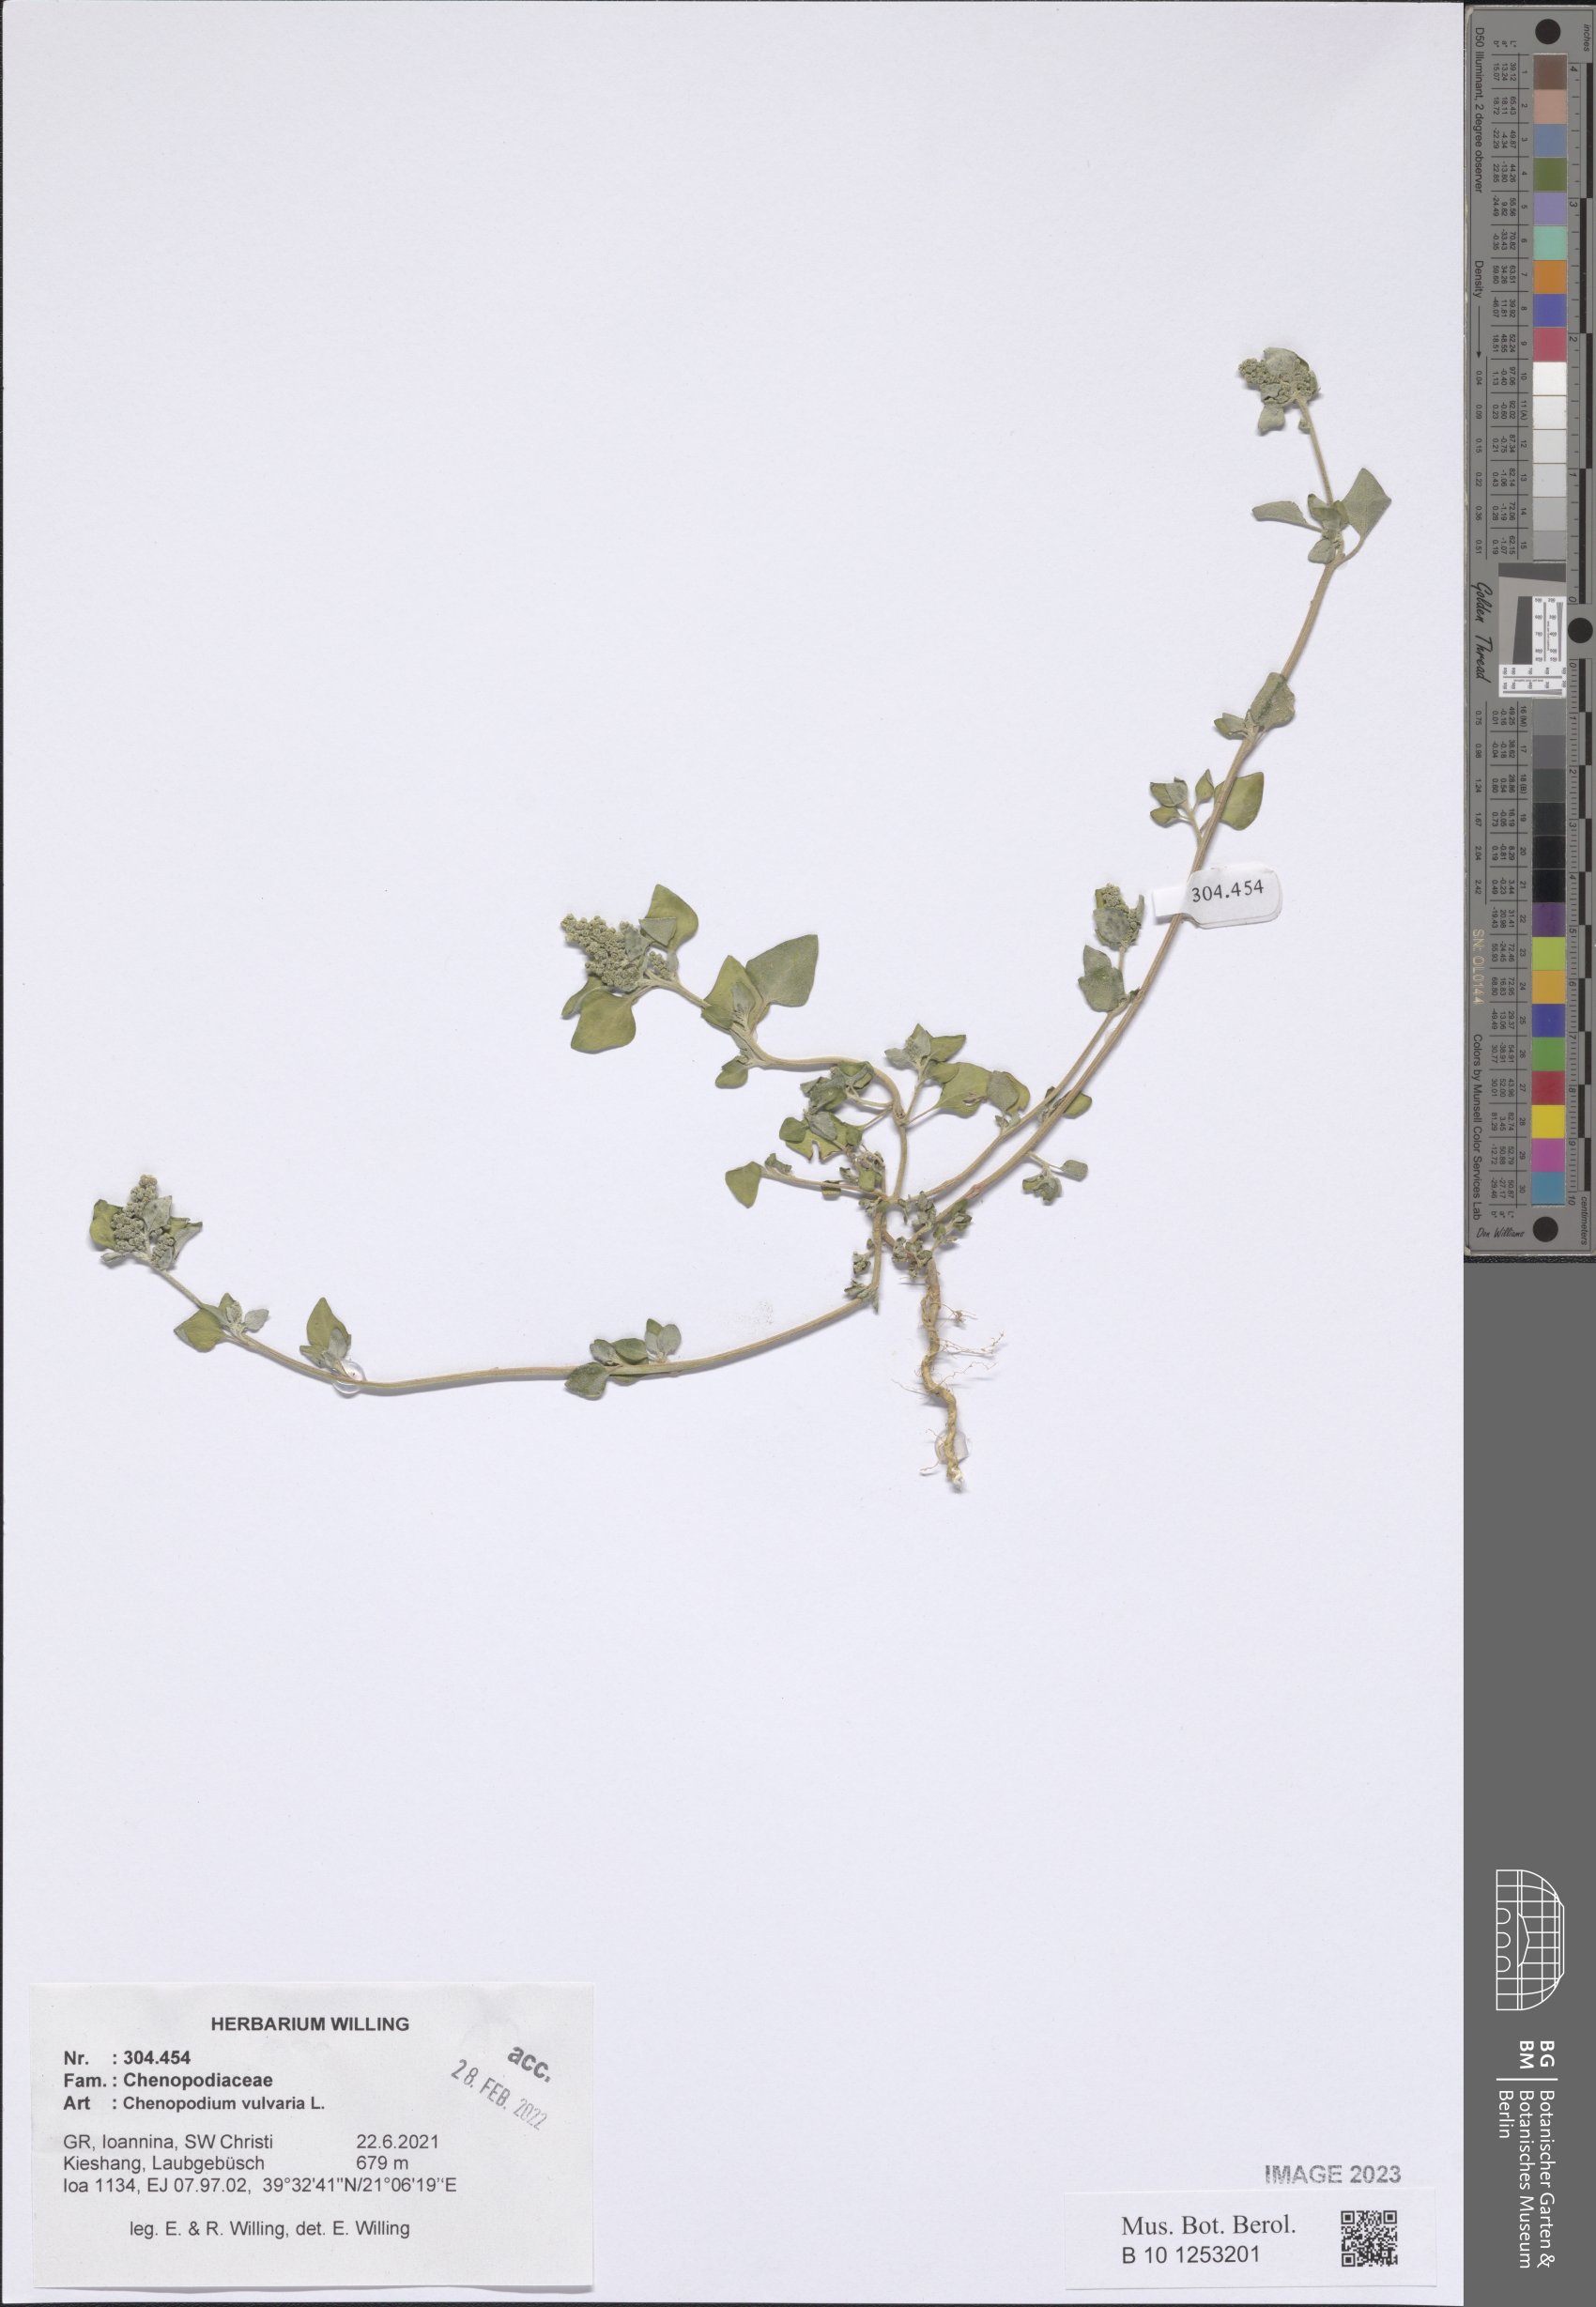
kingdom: Plantae
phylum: Tracheophyta
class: Magnoliopsida
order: Caryophyllales
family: Amaranthaceae
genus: Chenopodium
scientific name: Chenopodium vulvaria
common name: Stinking goosefoot
